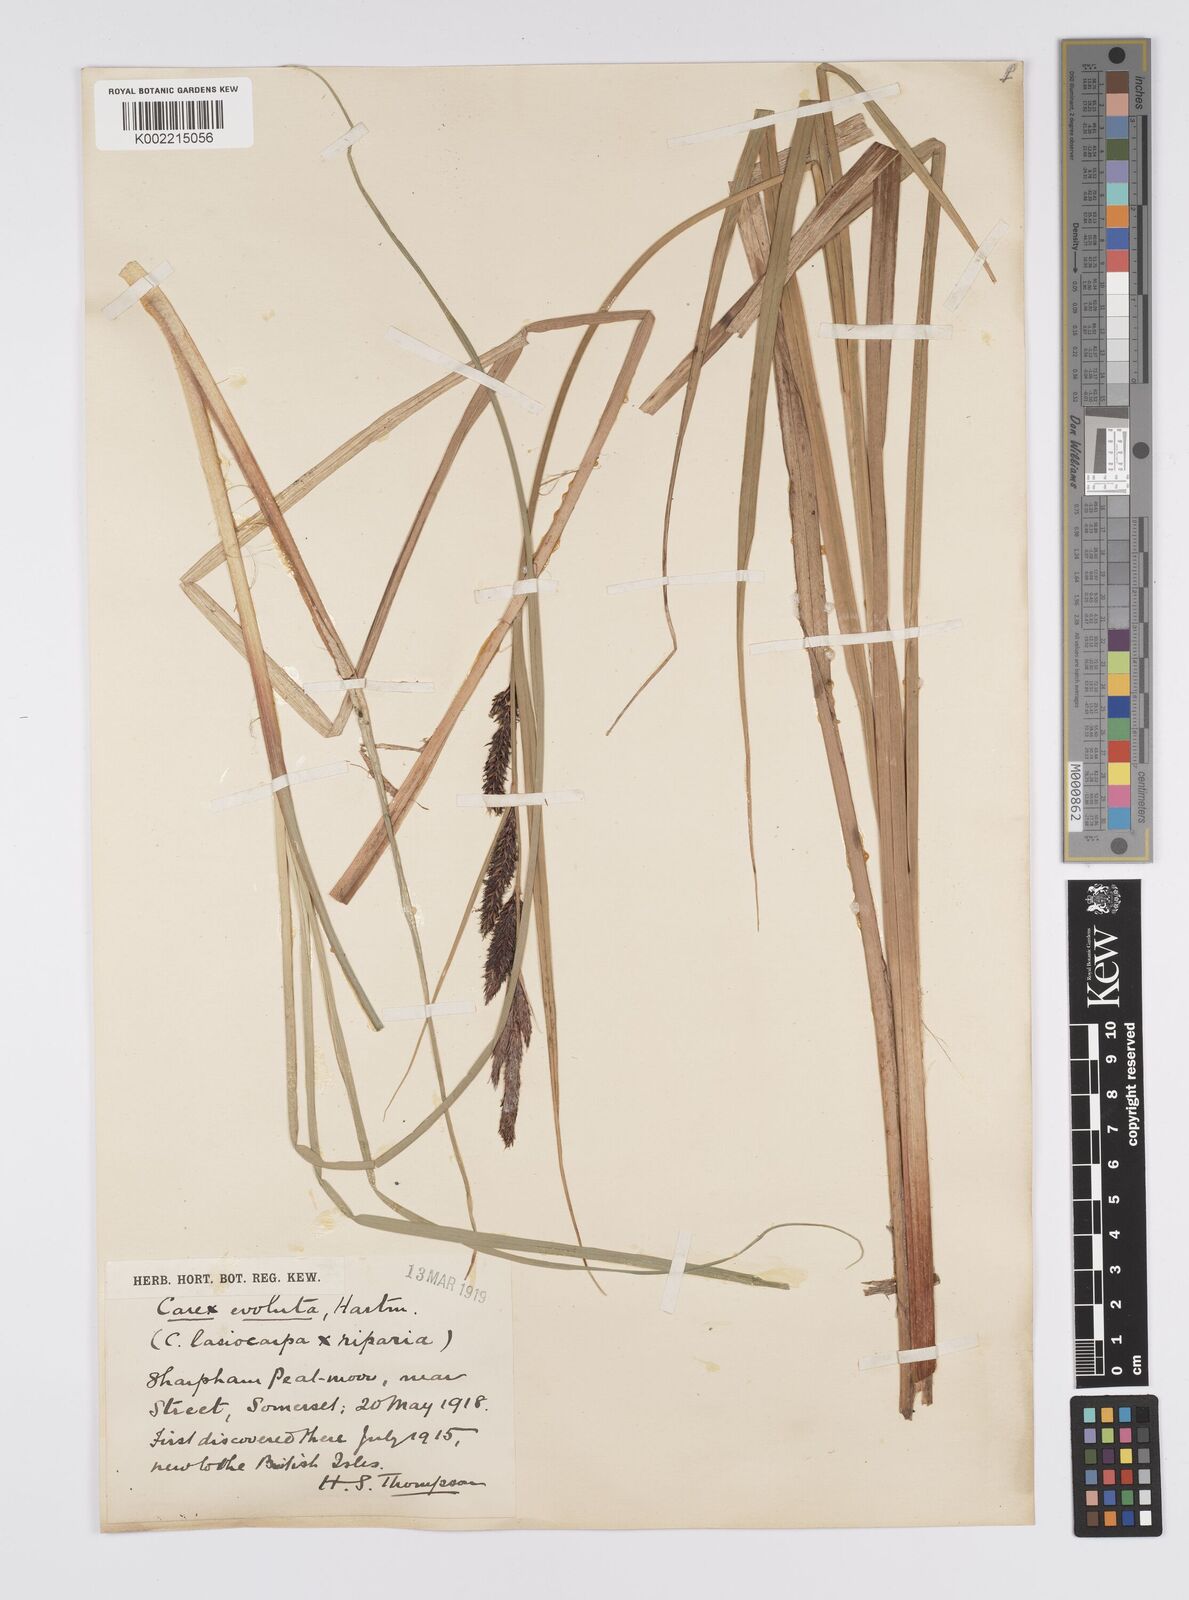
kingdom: Plantae
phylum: Tracheophyta
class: Liliopsida
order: Poales
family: Cyperaceae
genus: Carex
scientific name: Carex evoluta
